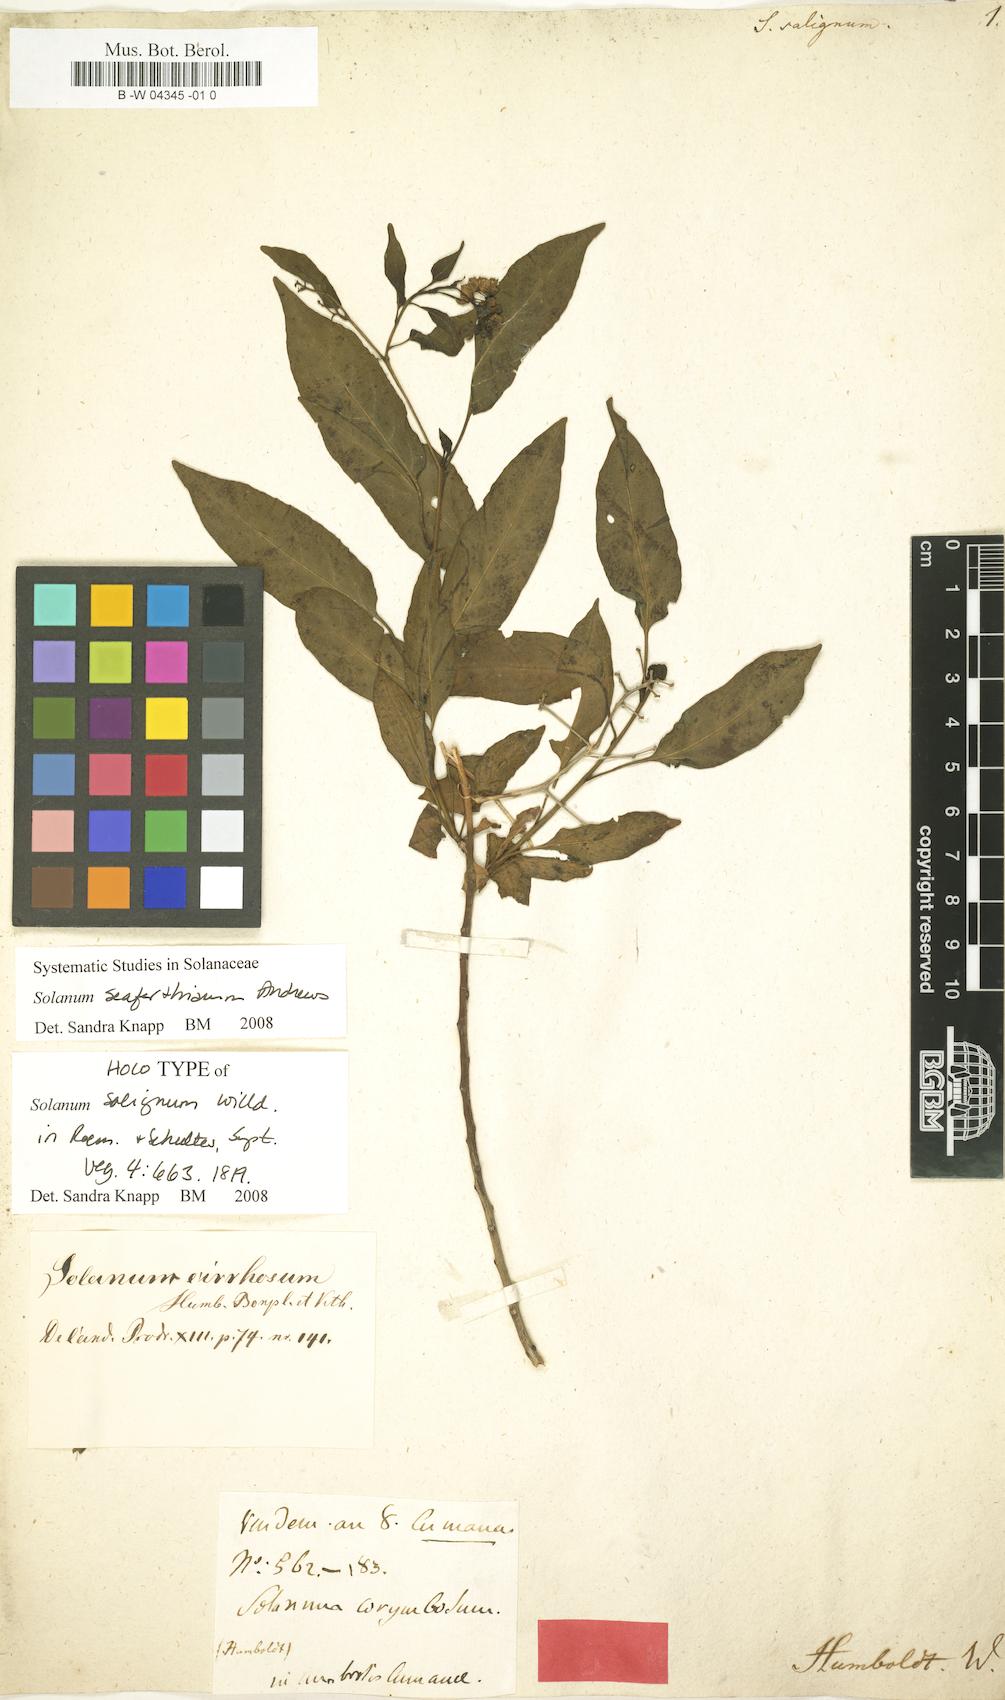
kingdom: Plantae
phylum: Tracheophyta
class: Magnoliopsida
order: Solanales
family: Solanaceae
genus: Solanum
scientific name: Solanum seaforthianum
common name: Brazilian nightshade
